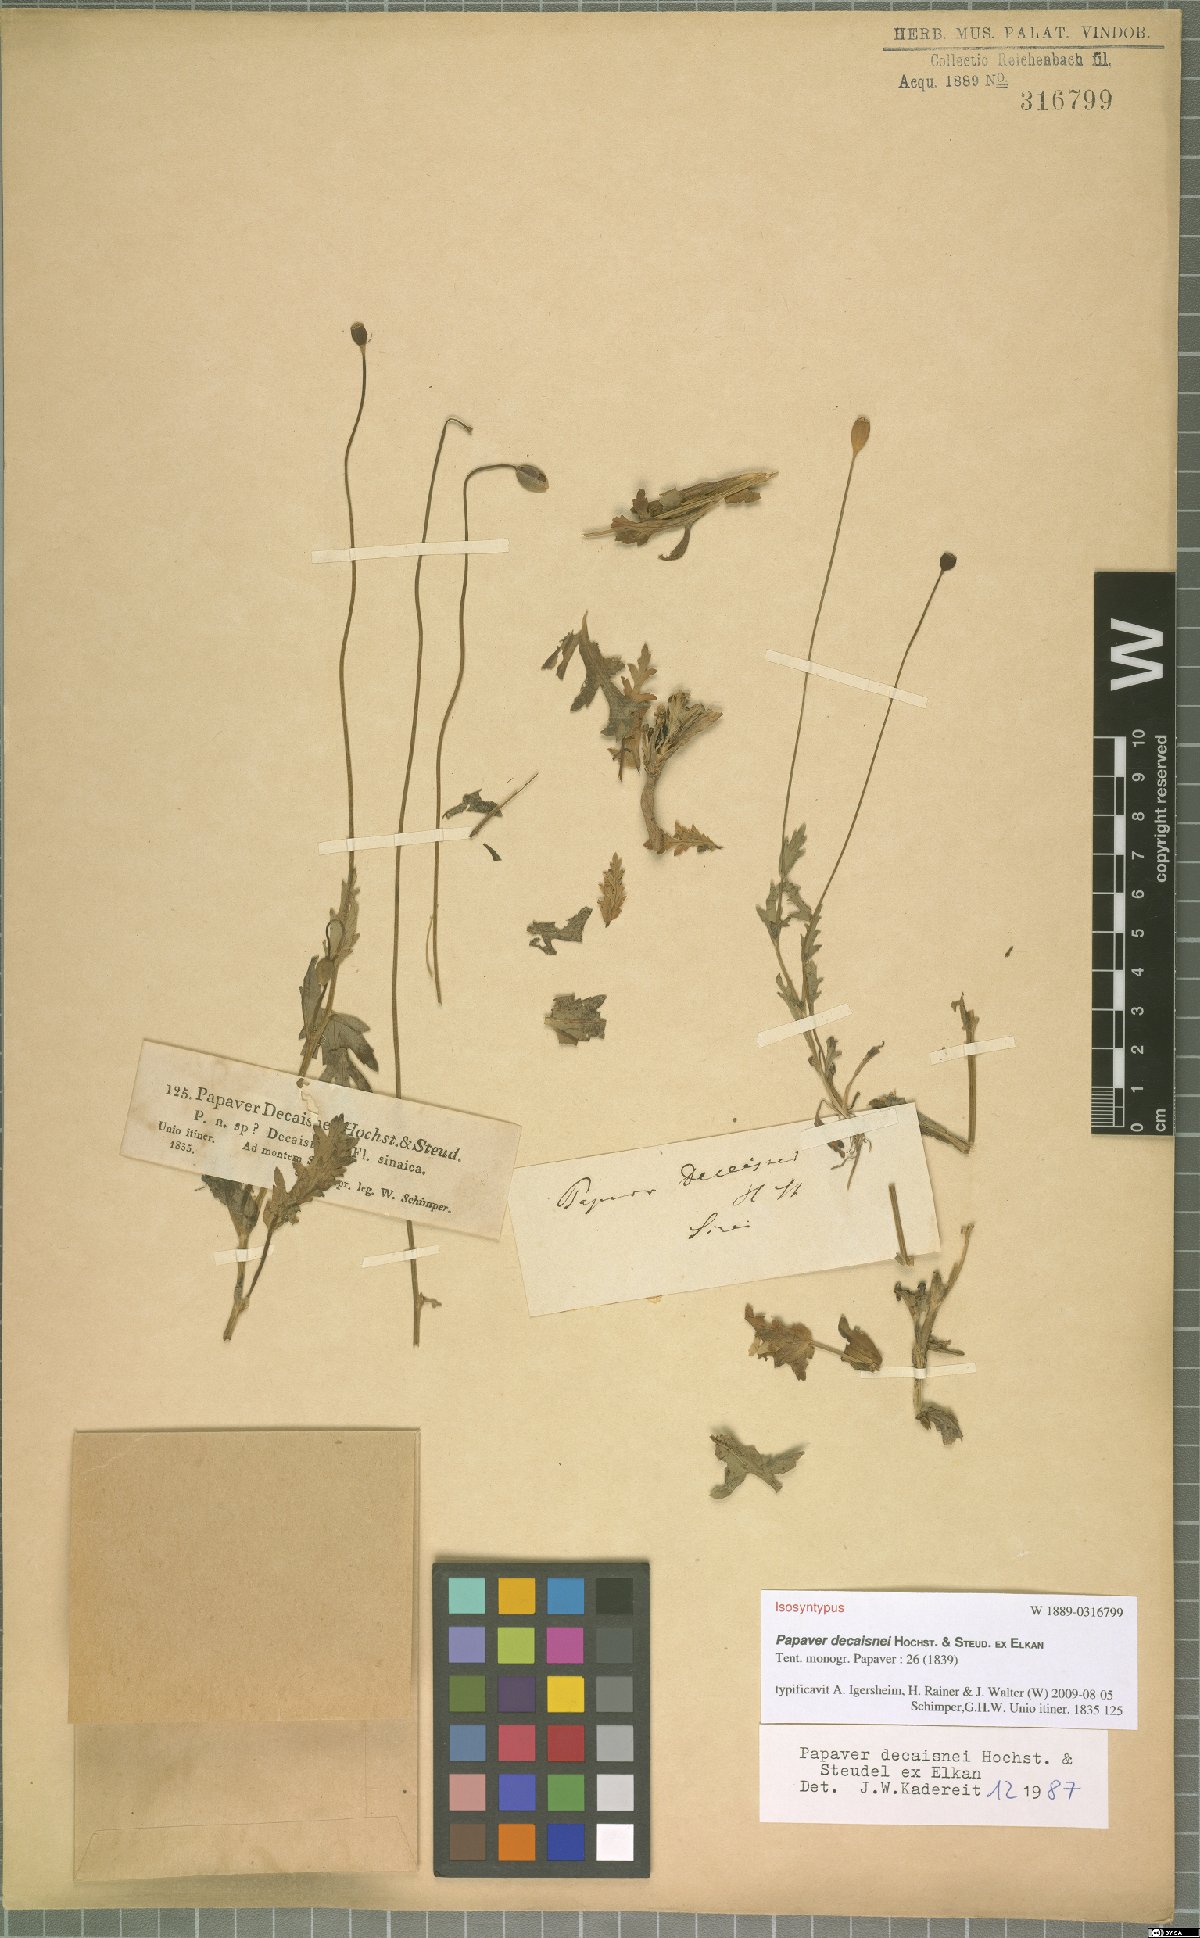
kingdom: Plantae
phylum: Tracheophyta
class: Magnoliopsida
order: Ranunculales
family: Papaveraceae
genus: Papaver
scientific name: Papaver decaisnei
